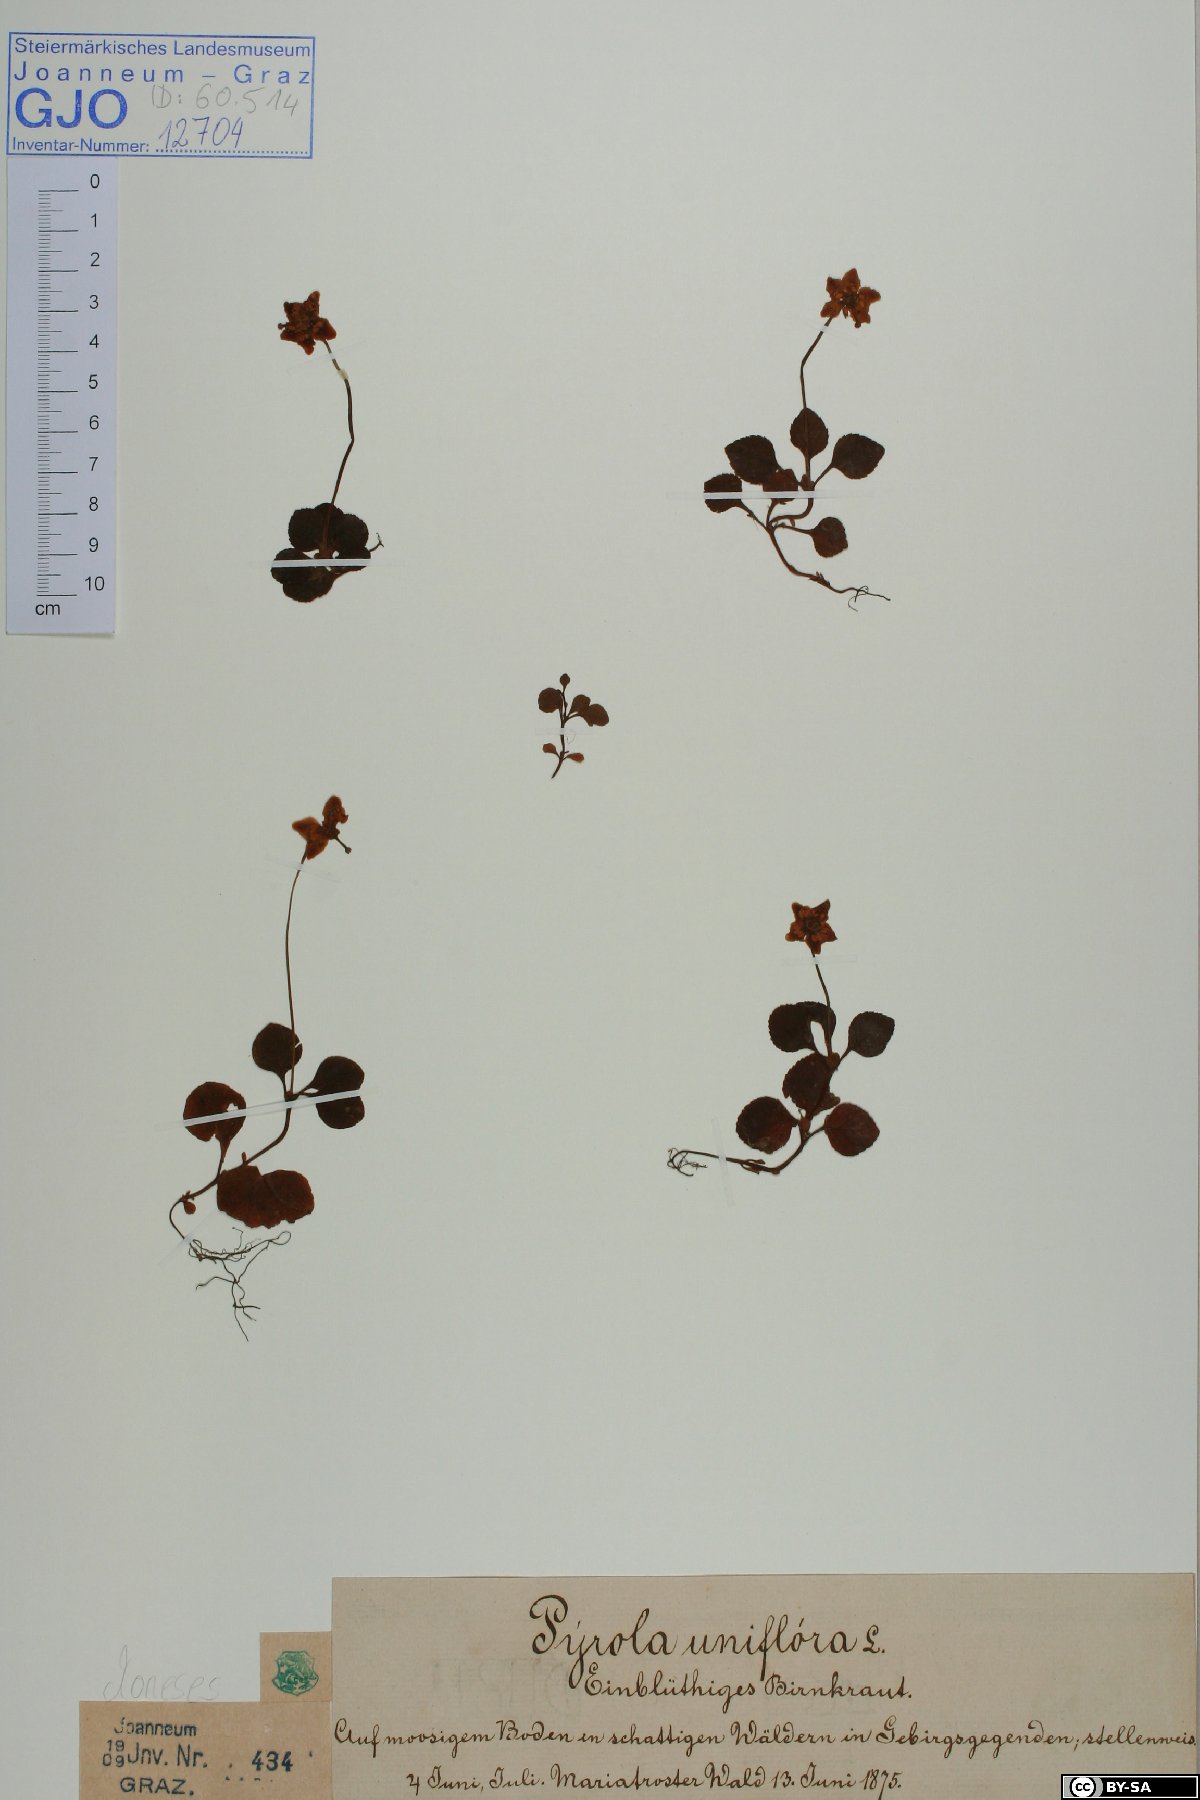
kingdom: Plantae
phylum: Tracheophyta
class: Magnoliopsida
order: Ericales
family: Ericaceae
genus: Moneses
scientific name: Moneses uniflora
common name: One-flowered wintergreen
